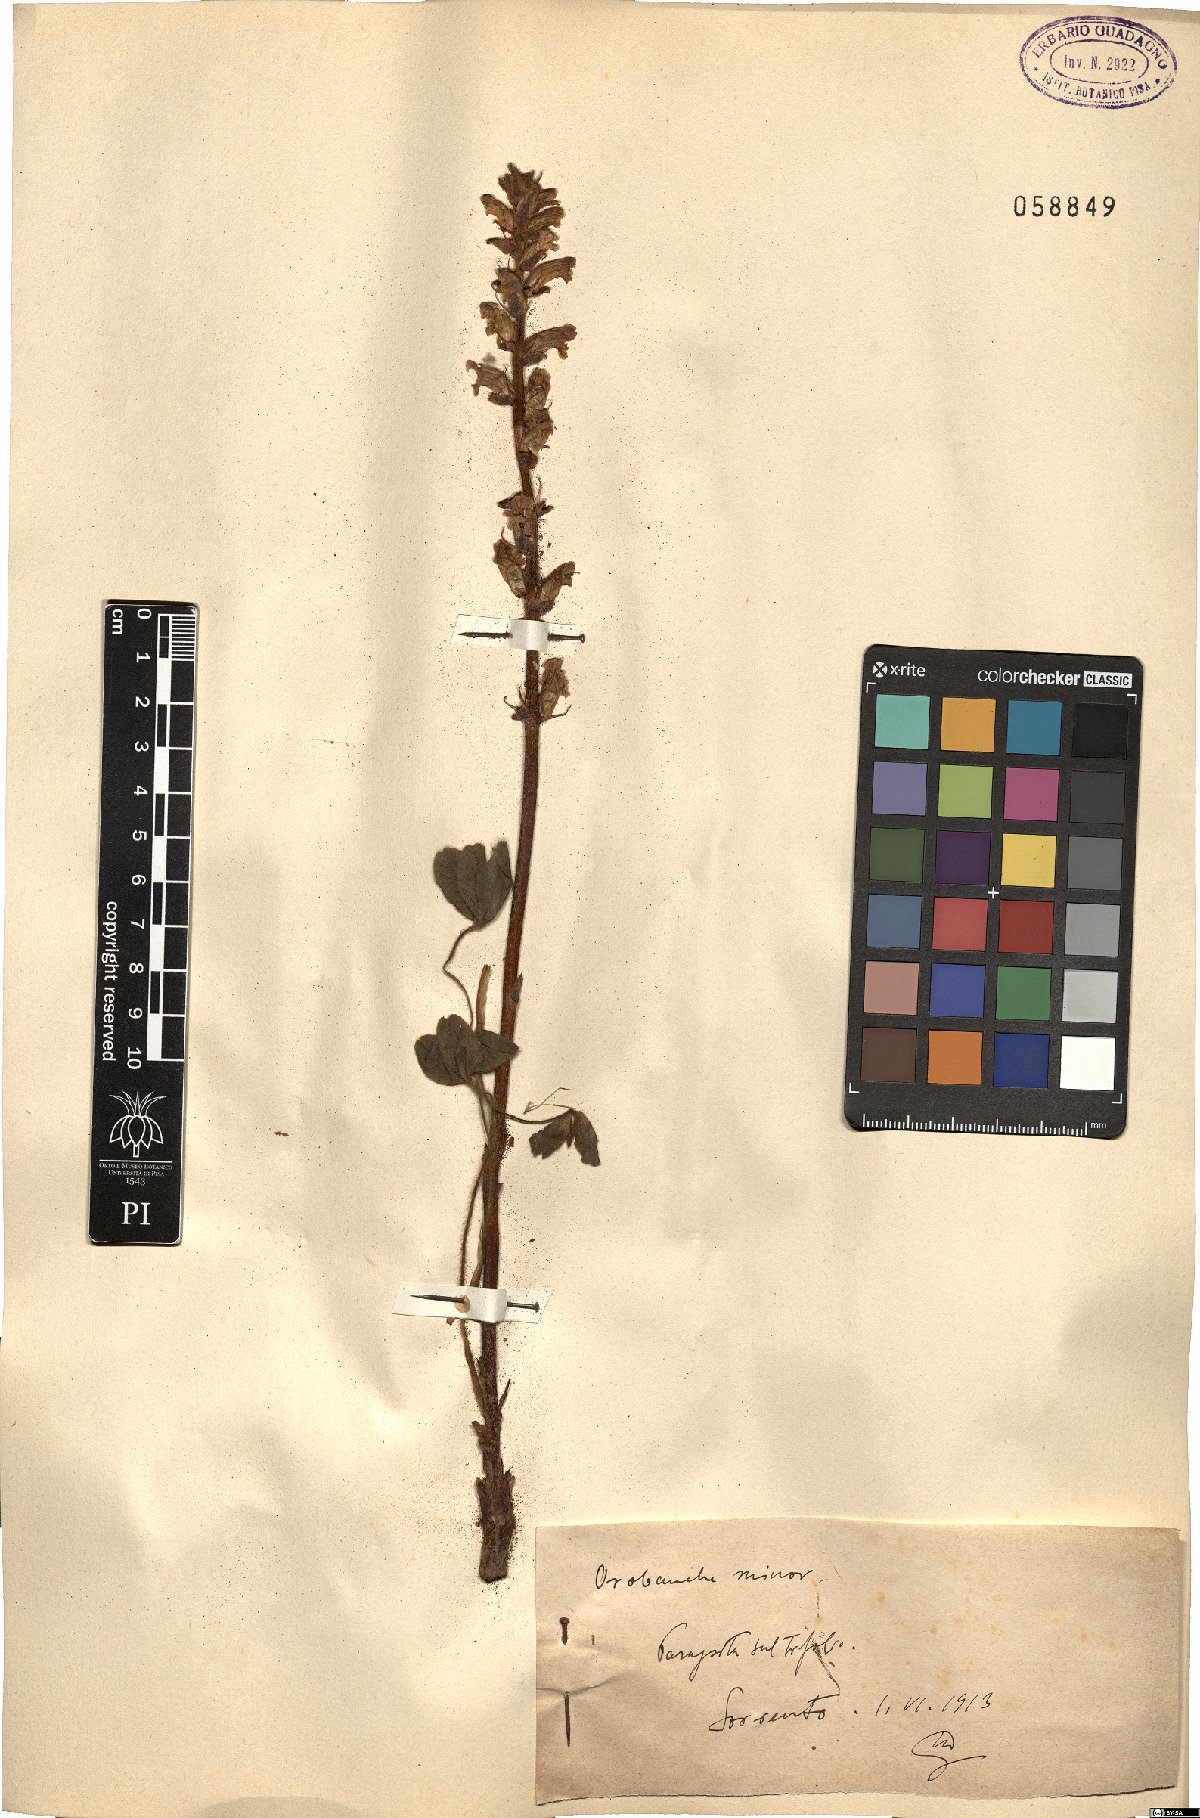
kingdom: Plantae
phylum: Tracheophyta
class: Magnoliopsida
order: Lamiales
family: Orobanchaceae
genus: Orobanche
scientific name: Orobanche minor
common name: Common broomrape
